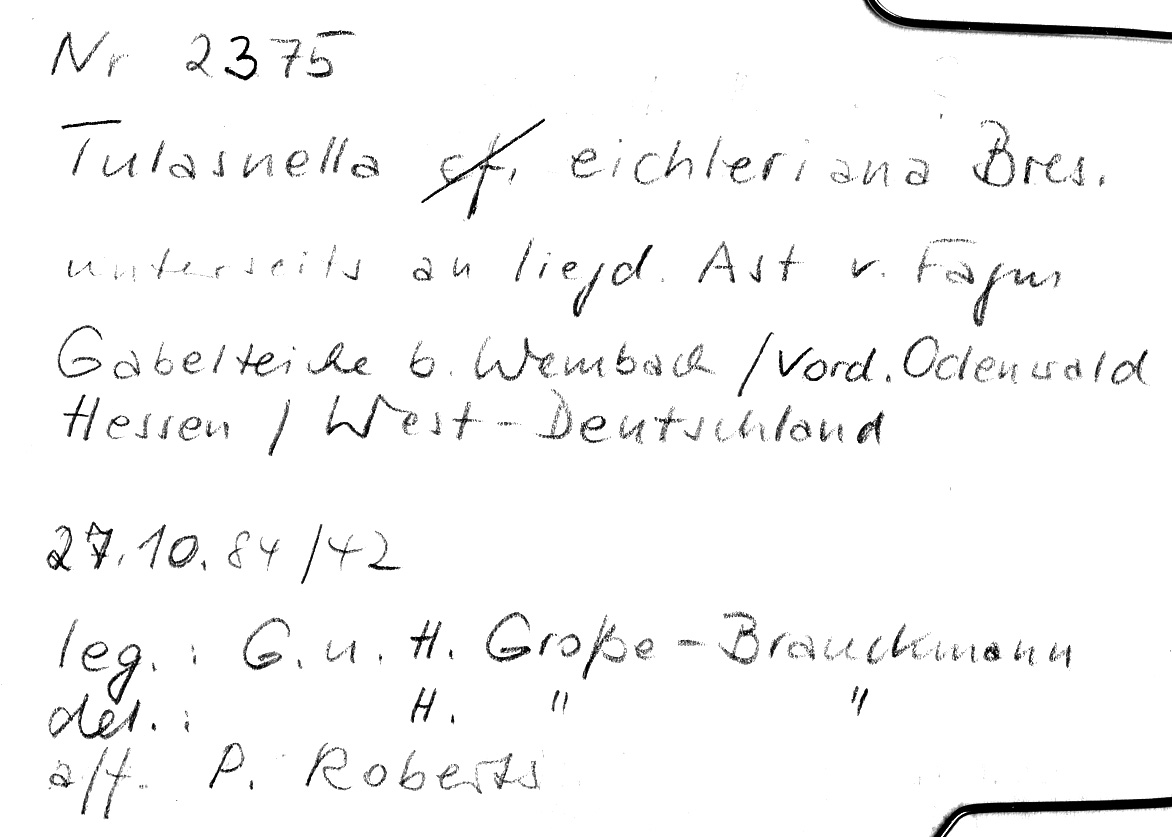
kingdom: Fungi
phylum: Basidiomycota
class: Agaricomycetes
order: Cantharellales
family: Tulasnellaceae
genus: Tulasnella
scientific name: Tulasnella eichleriana
